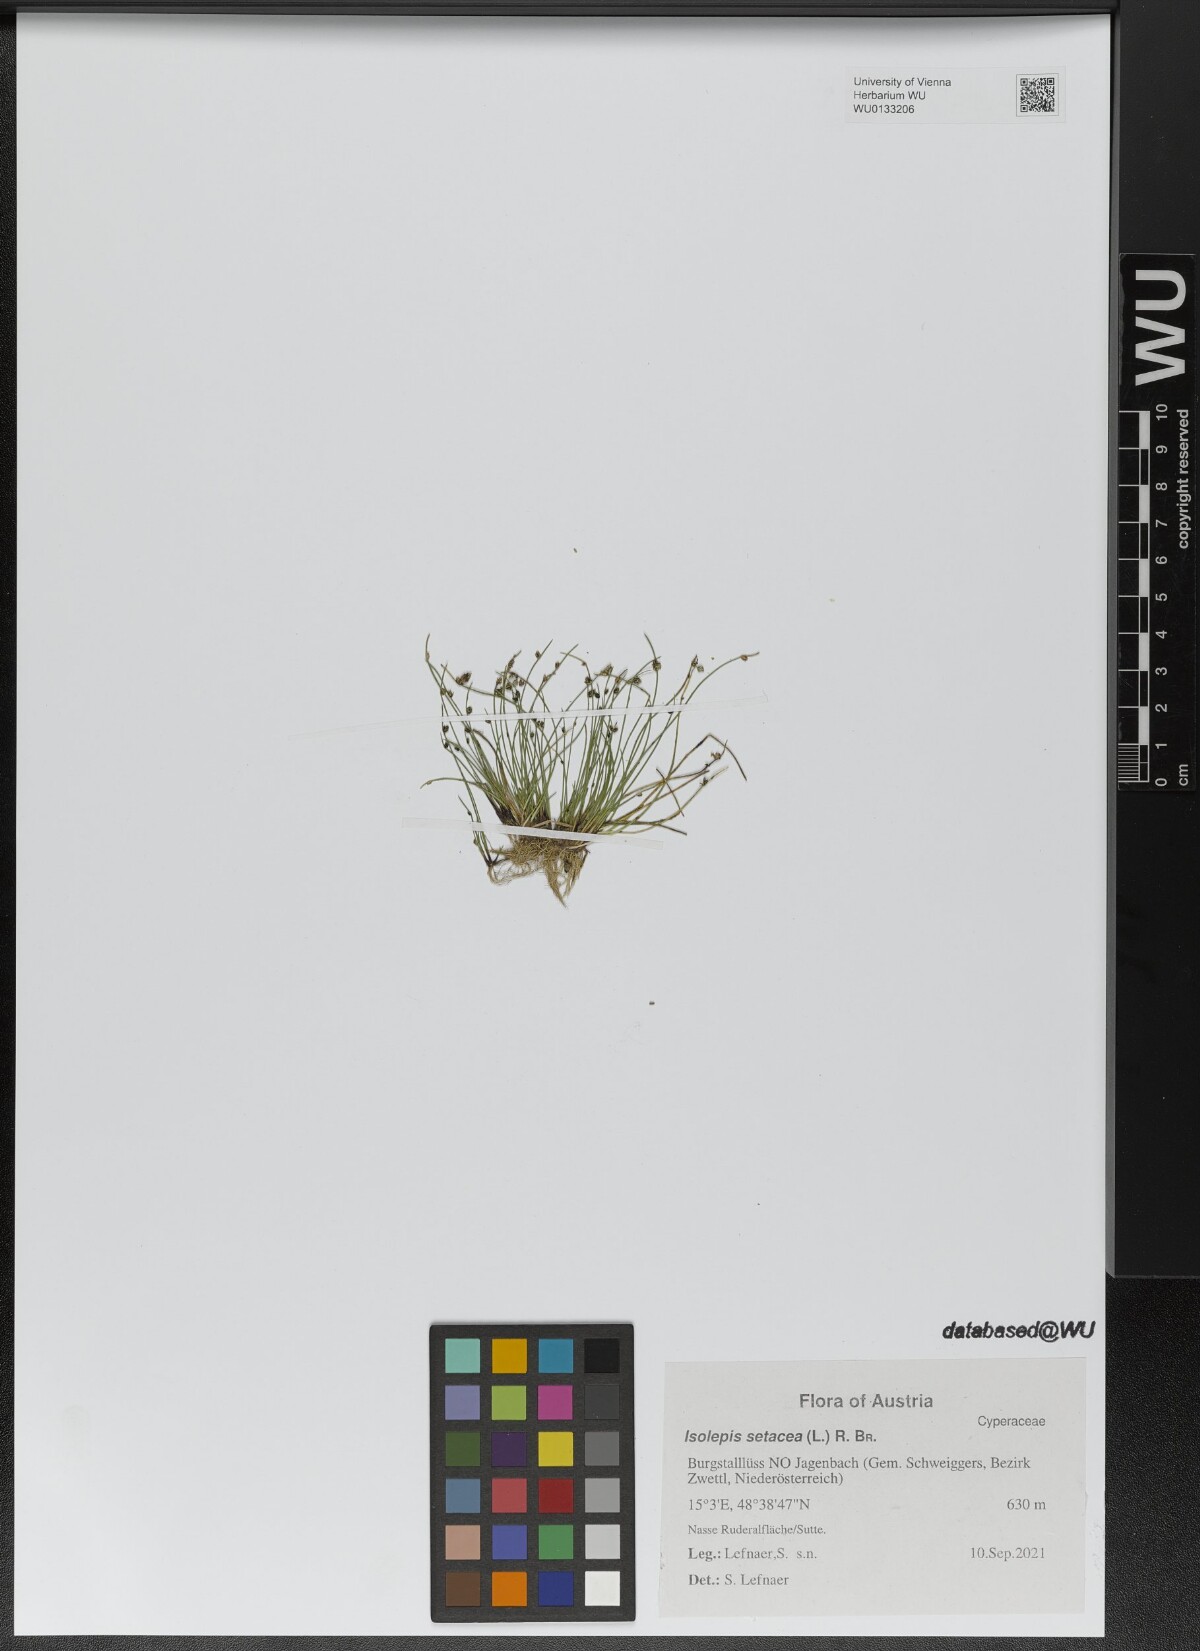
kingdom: Plantae
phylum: Tracheophyta
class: Liliopsida
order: Poales
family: Cyperaceae
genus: Isolepis
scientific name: Isolepis setacea
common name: Bristle club-rush
